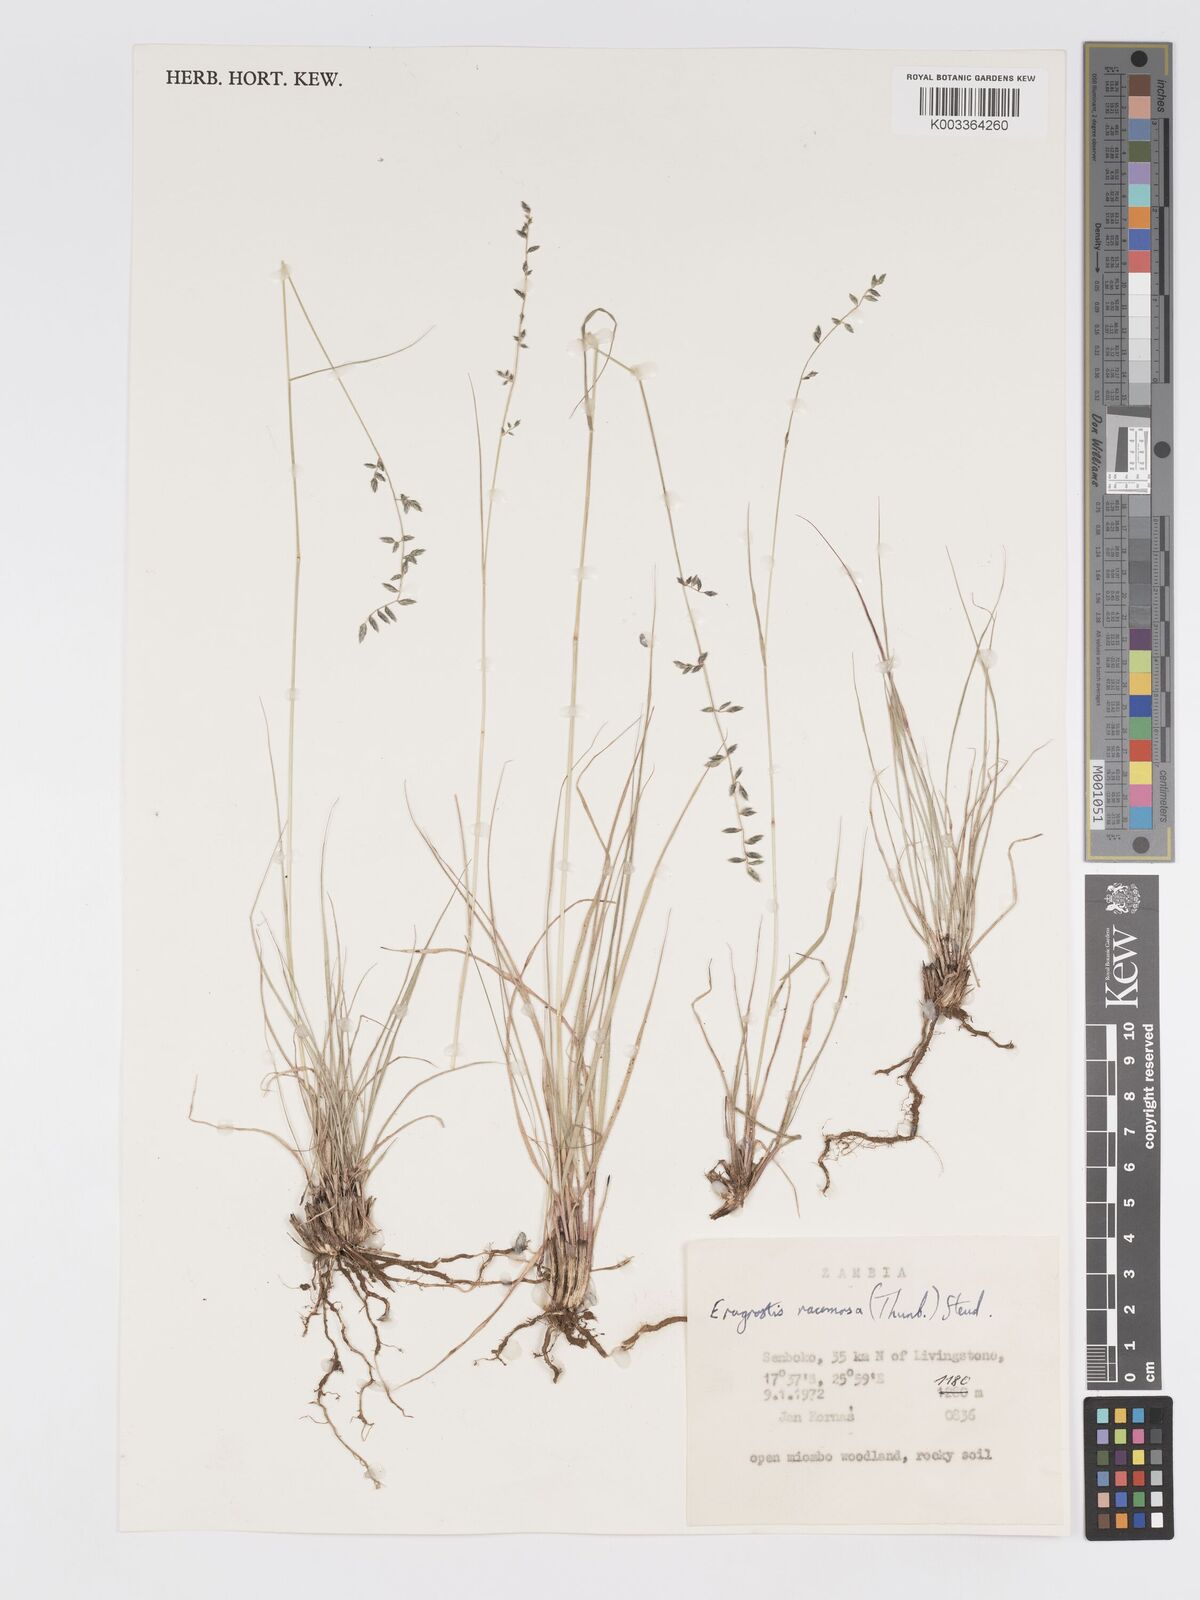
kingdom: Plantae
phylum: Tracheophyta
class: Liliopsida
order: Poales
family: Poaceae
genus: Eragrostis
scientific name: Eragrostis racemosa
